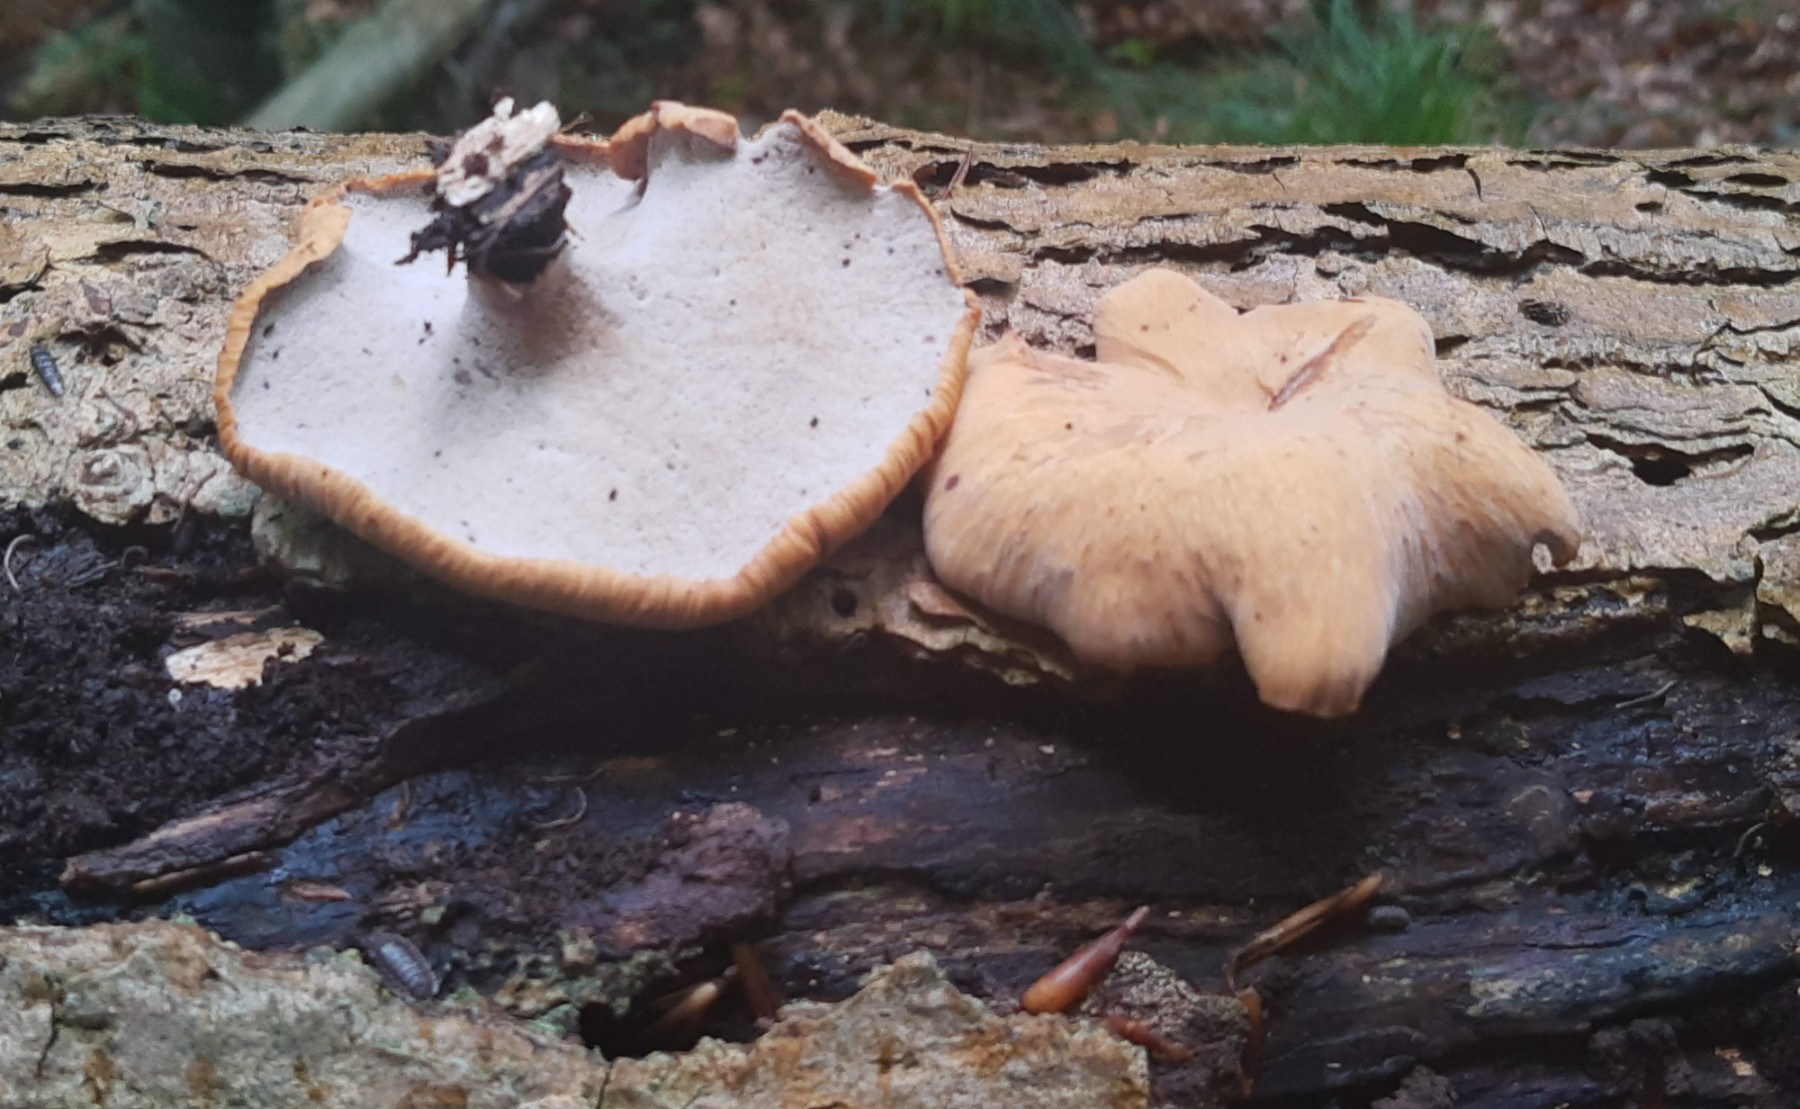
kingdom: Fungi
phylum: Basidiomycota
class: Agaricomycetes
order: Polyporales
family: Polyporaceae
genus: Cerioporus
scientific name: Cerioporus varius
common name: foranderlig stilkporesvamp
